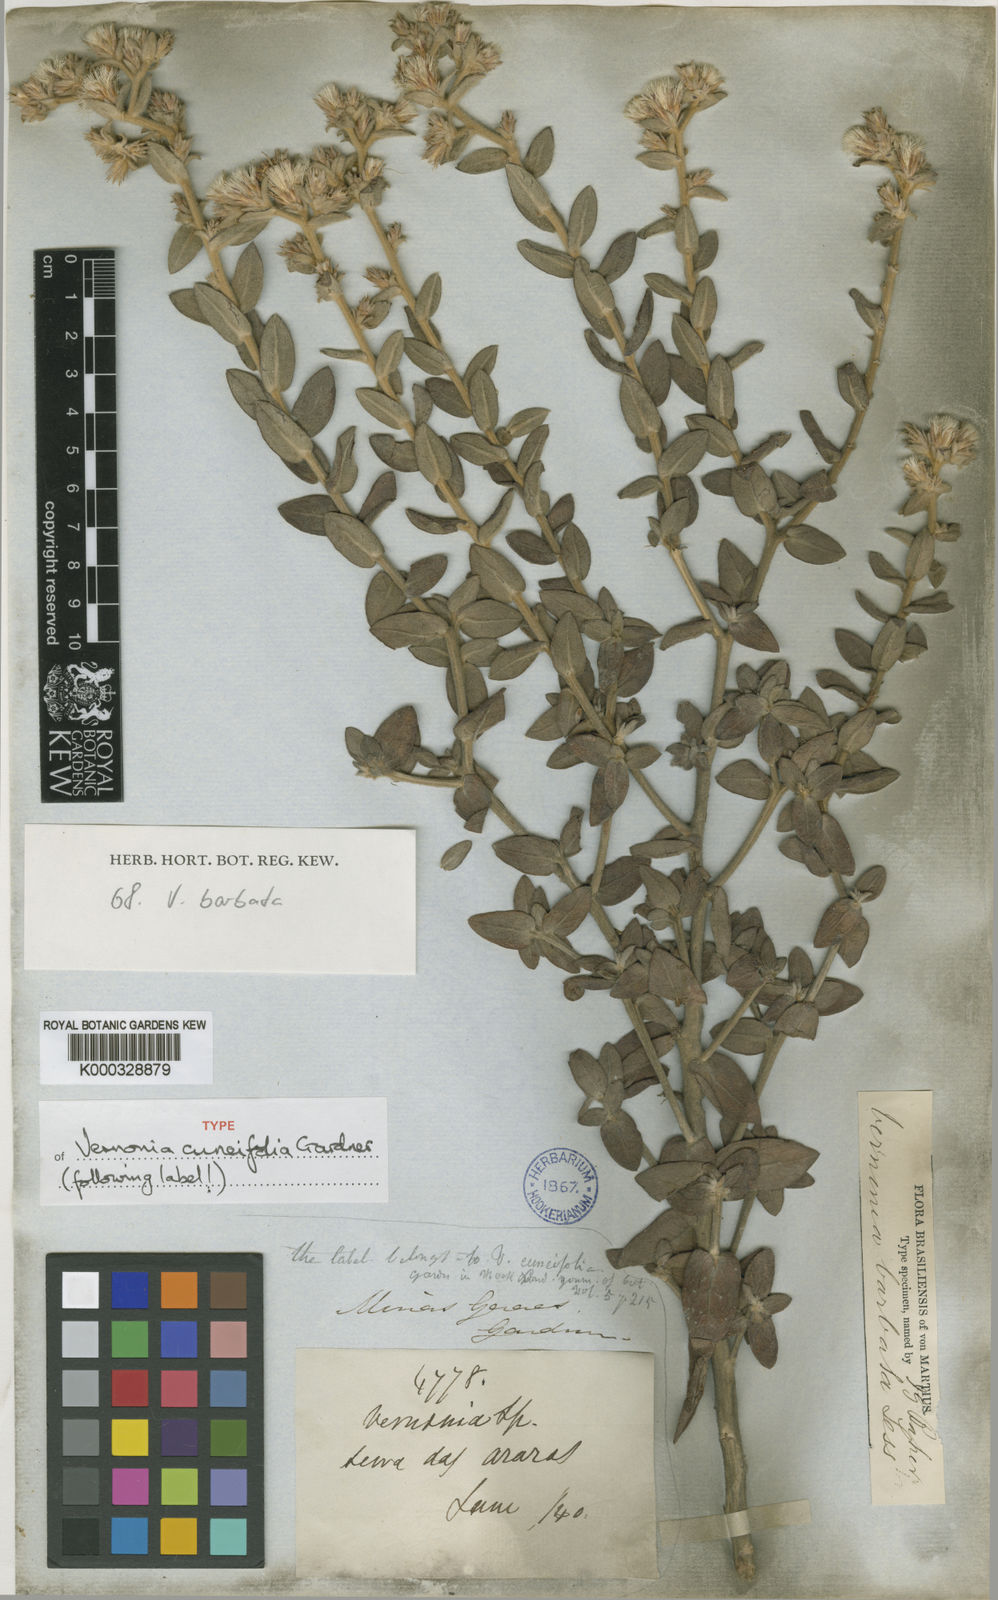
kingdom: Plantae
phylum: Tracheophyta
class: Magnoliopsida
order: Asterales
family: Asteraceae
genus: Lepidaploa
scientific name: Lepidaploa barbata
